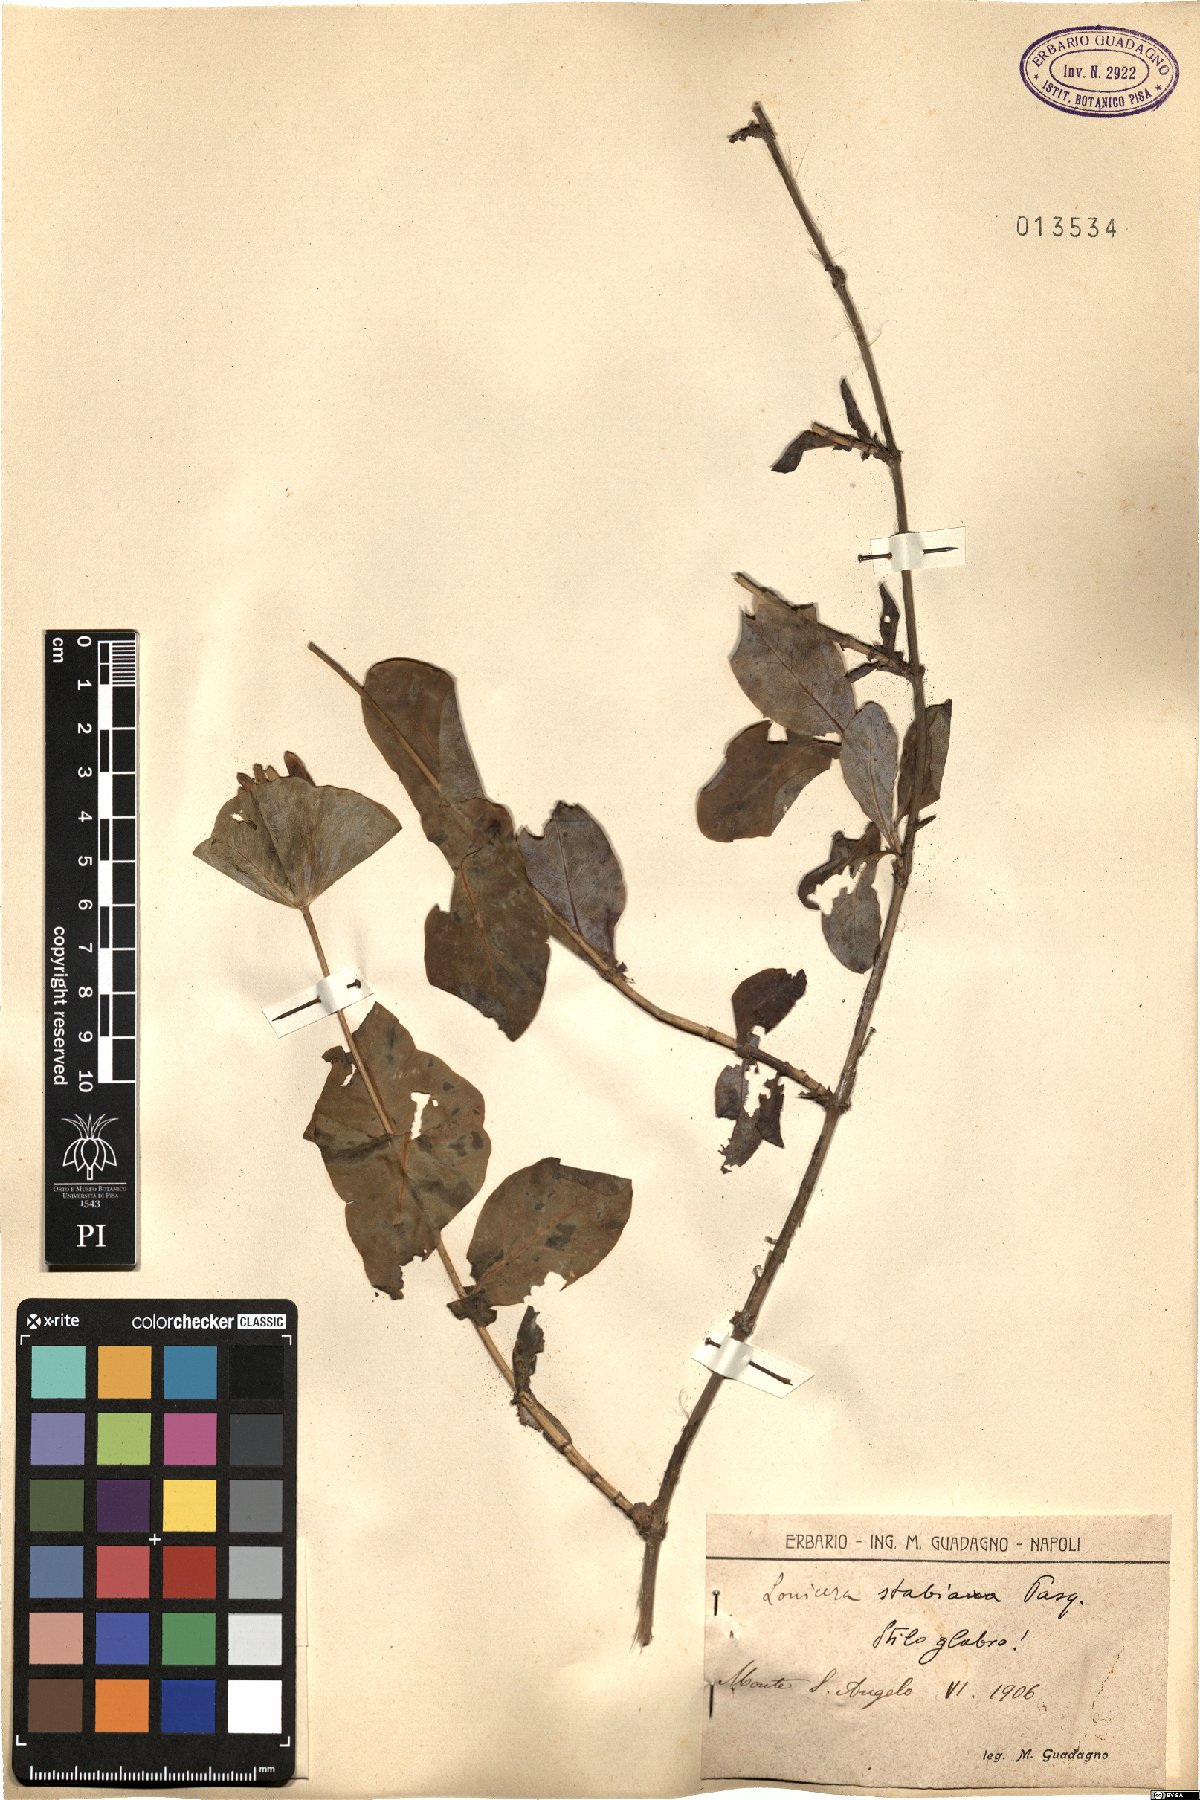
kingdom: Plantae
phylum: Tracheophyta
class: Magnoliopsida
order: Dipsacales
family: Caprifoliaceae
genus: Lonicera
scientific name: Lonicera stabiana
